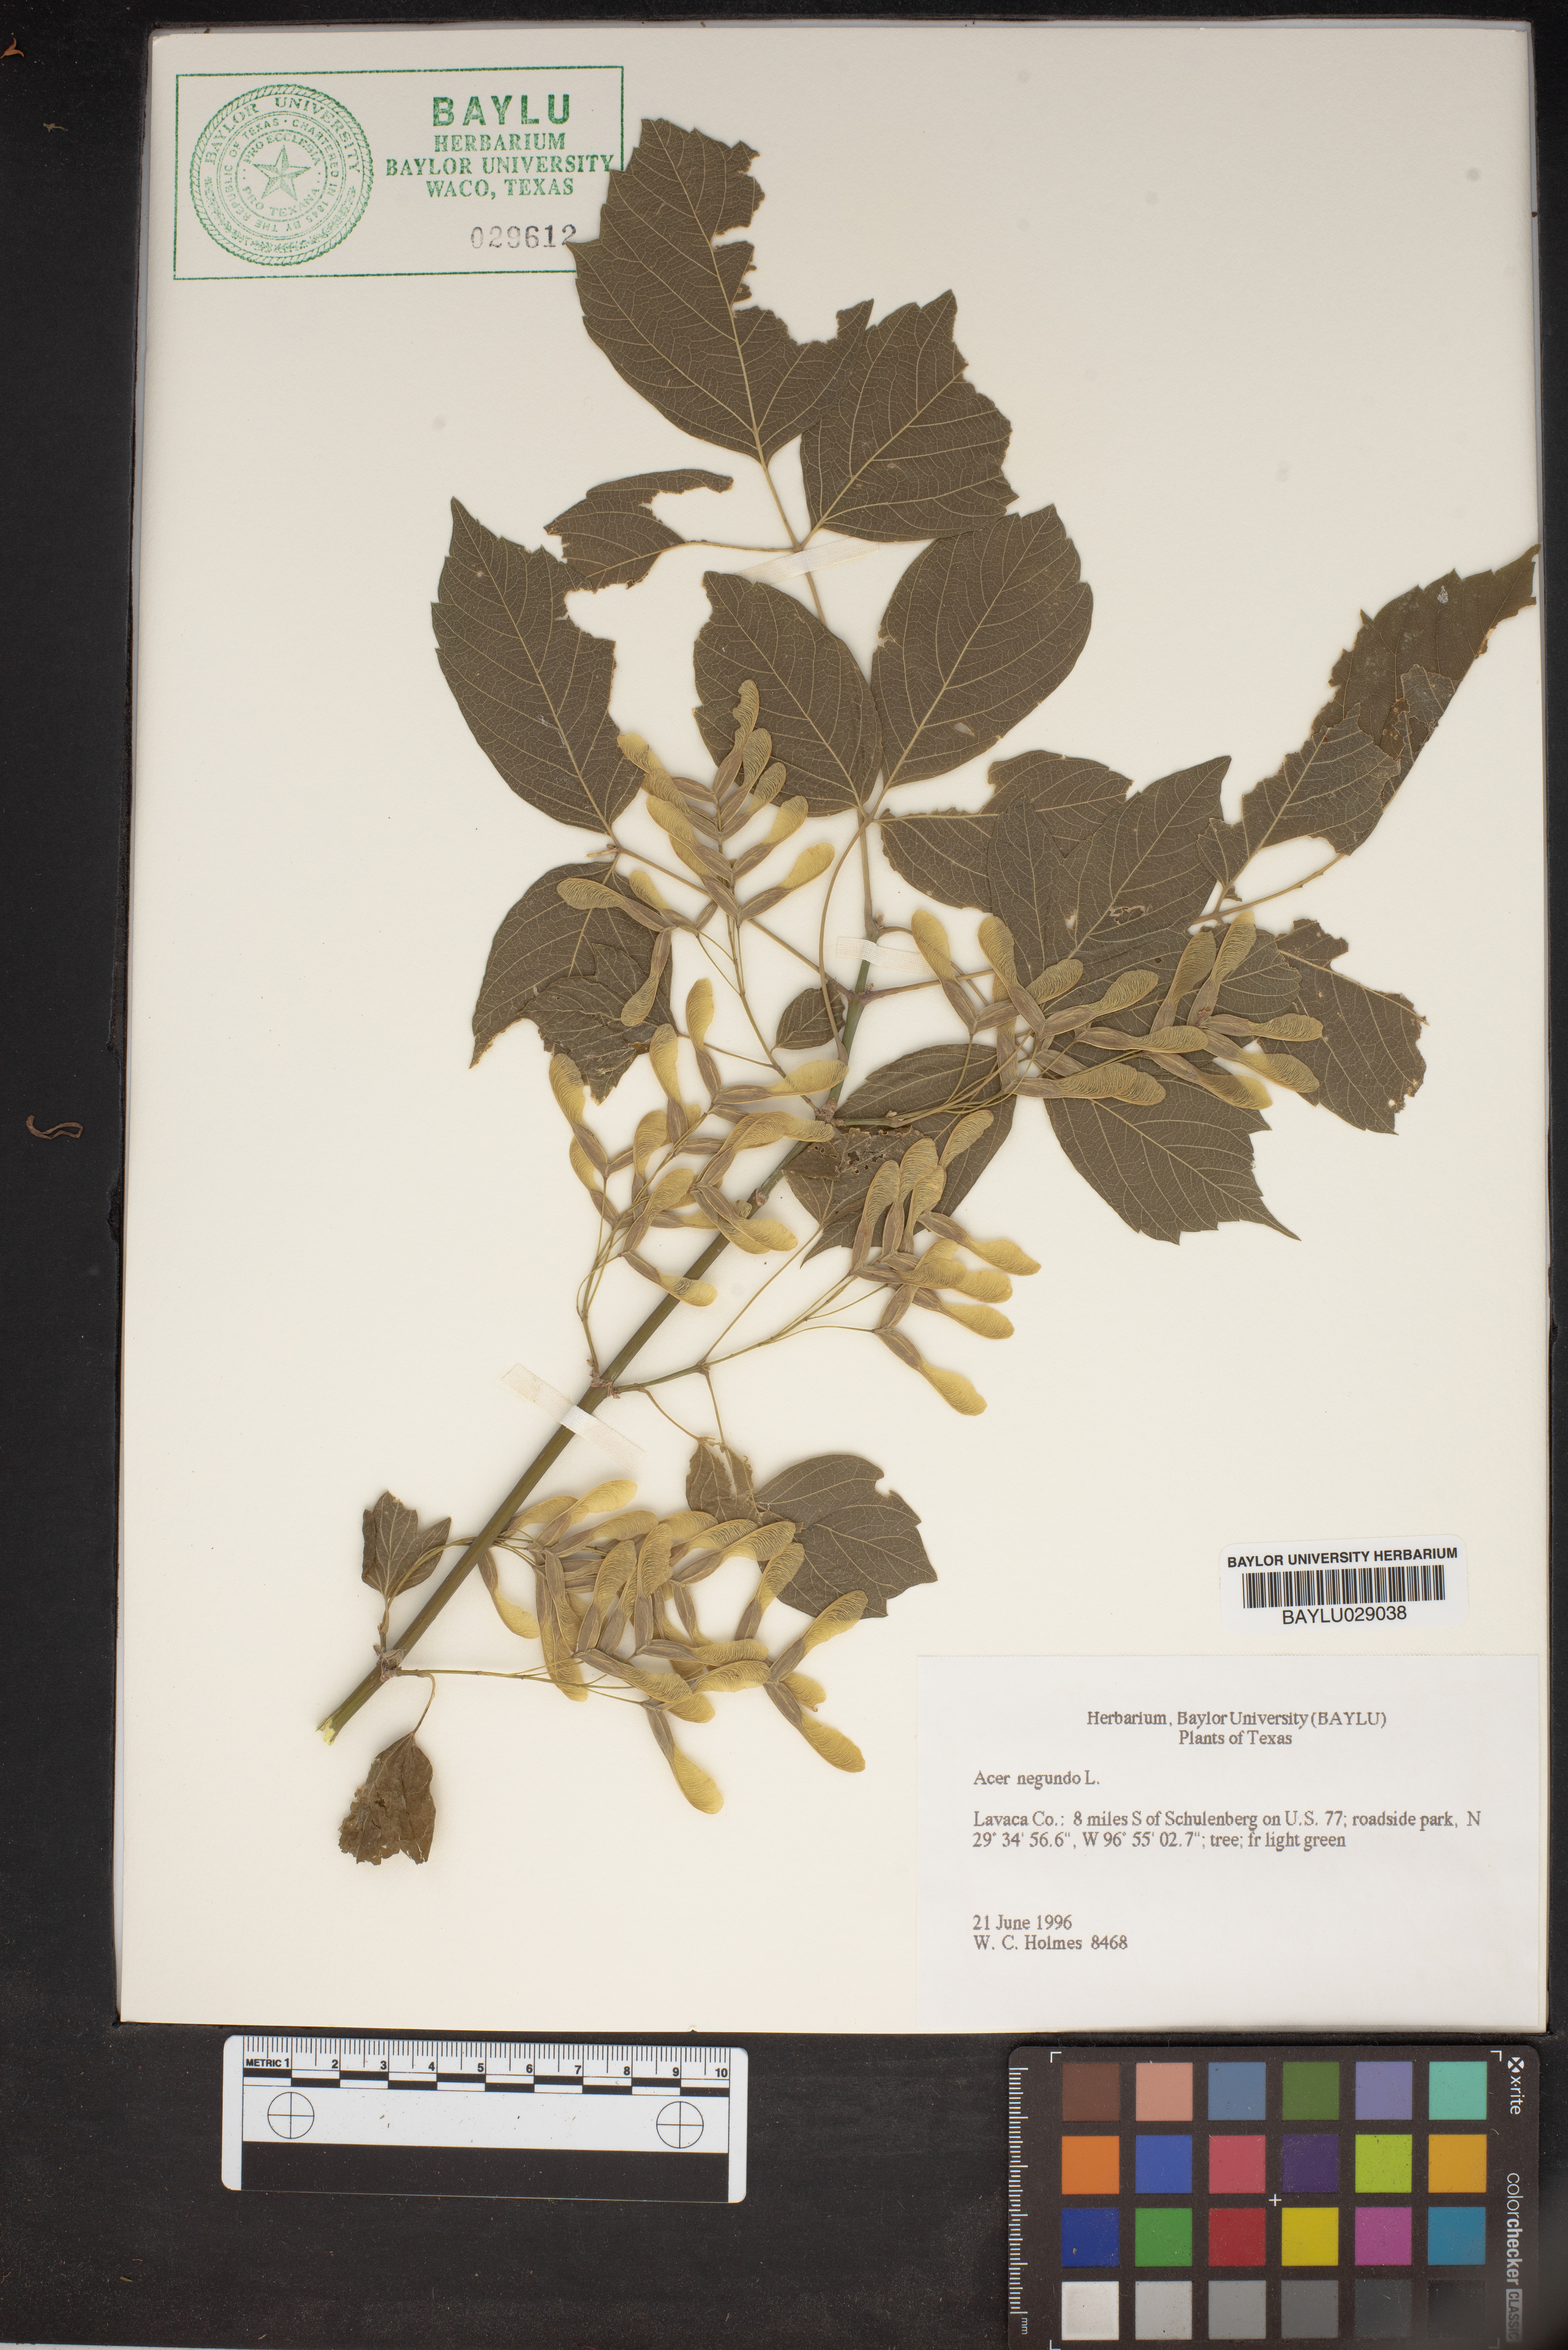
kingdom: Plantae
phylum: Tracheophyta
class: Magnoliopsida
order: Sapindales
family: Sapindaceae
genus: Acer
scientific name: Acer negundo
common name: Ashleaf maple
